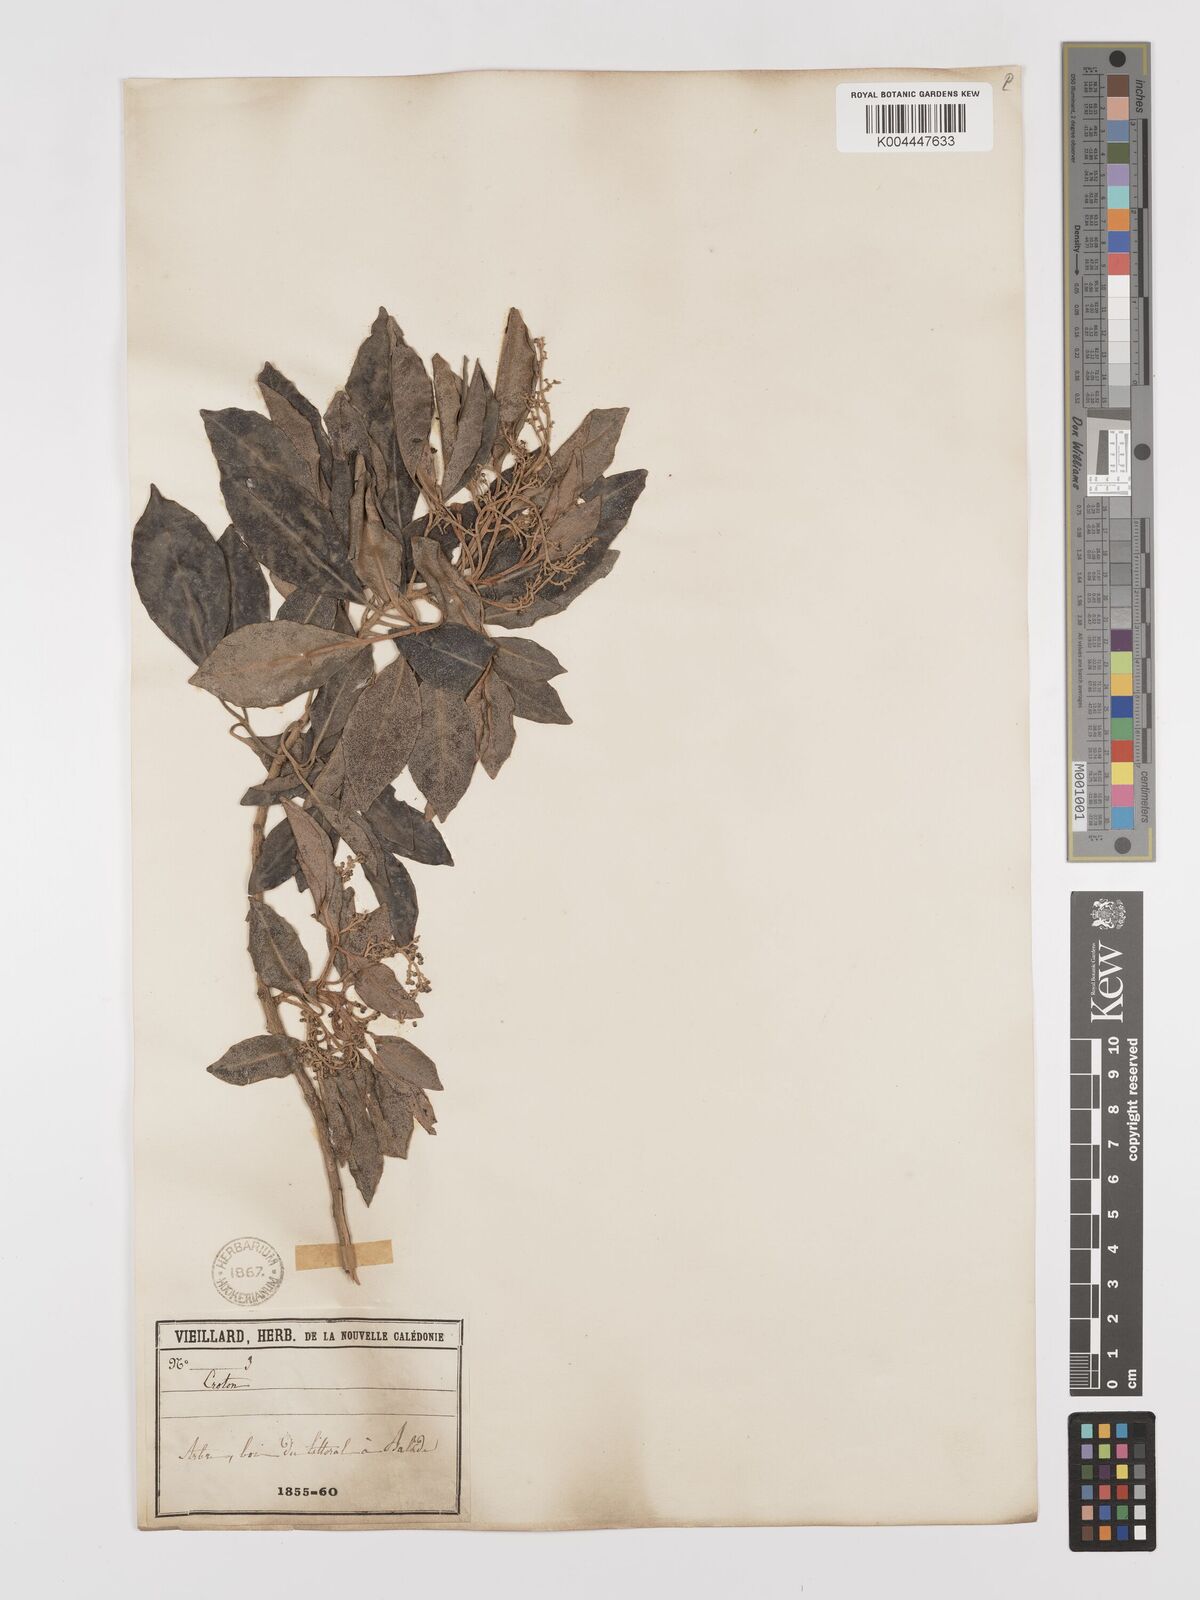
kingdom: Plantae
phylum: Tracheophyta
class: Magnoliopsida
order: Malpighiales
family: Euphorbiaceae
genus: Croton
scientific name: Croton insularis
